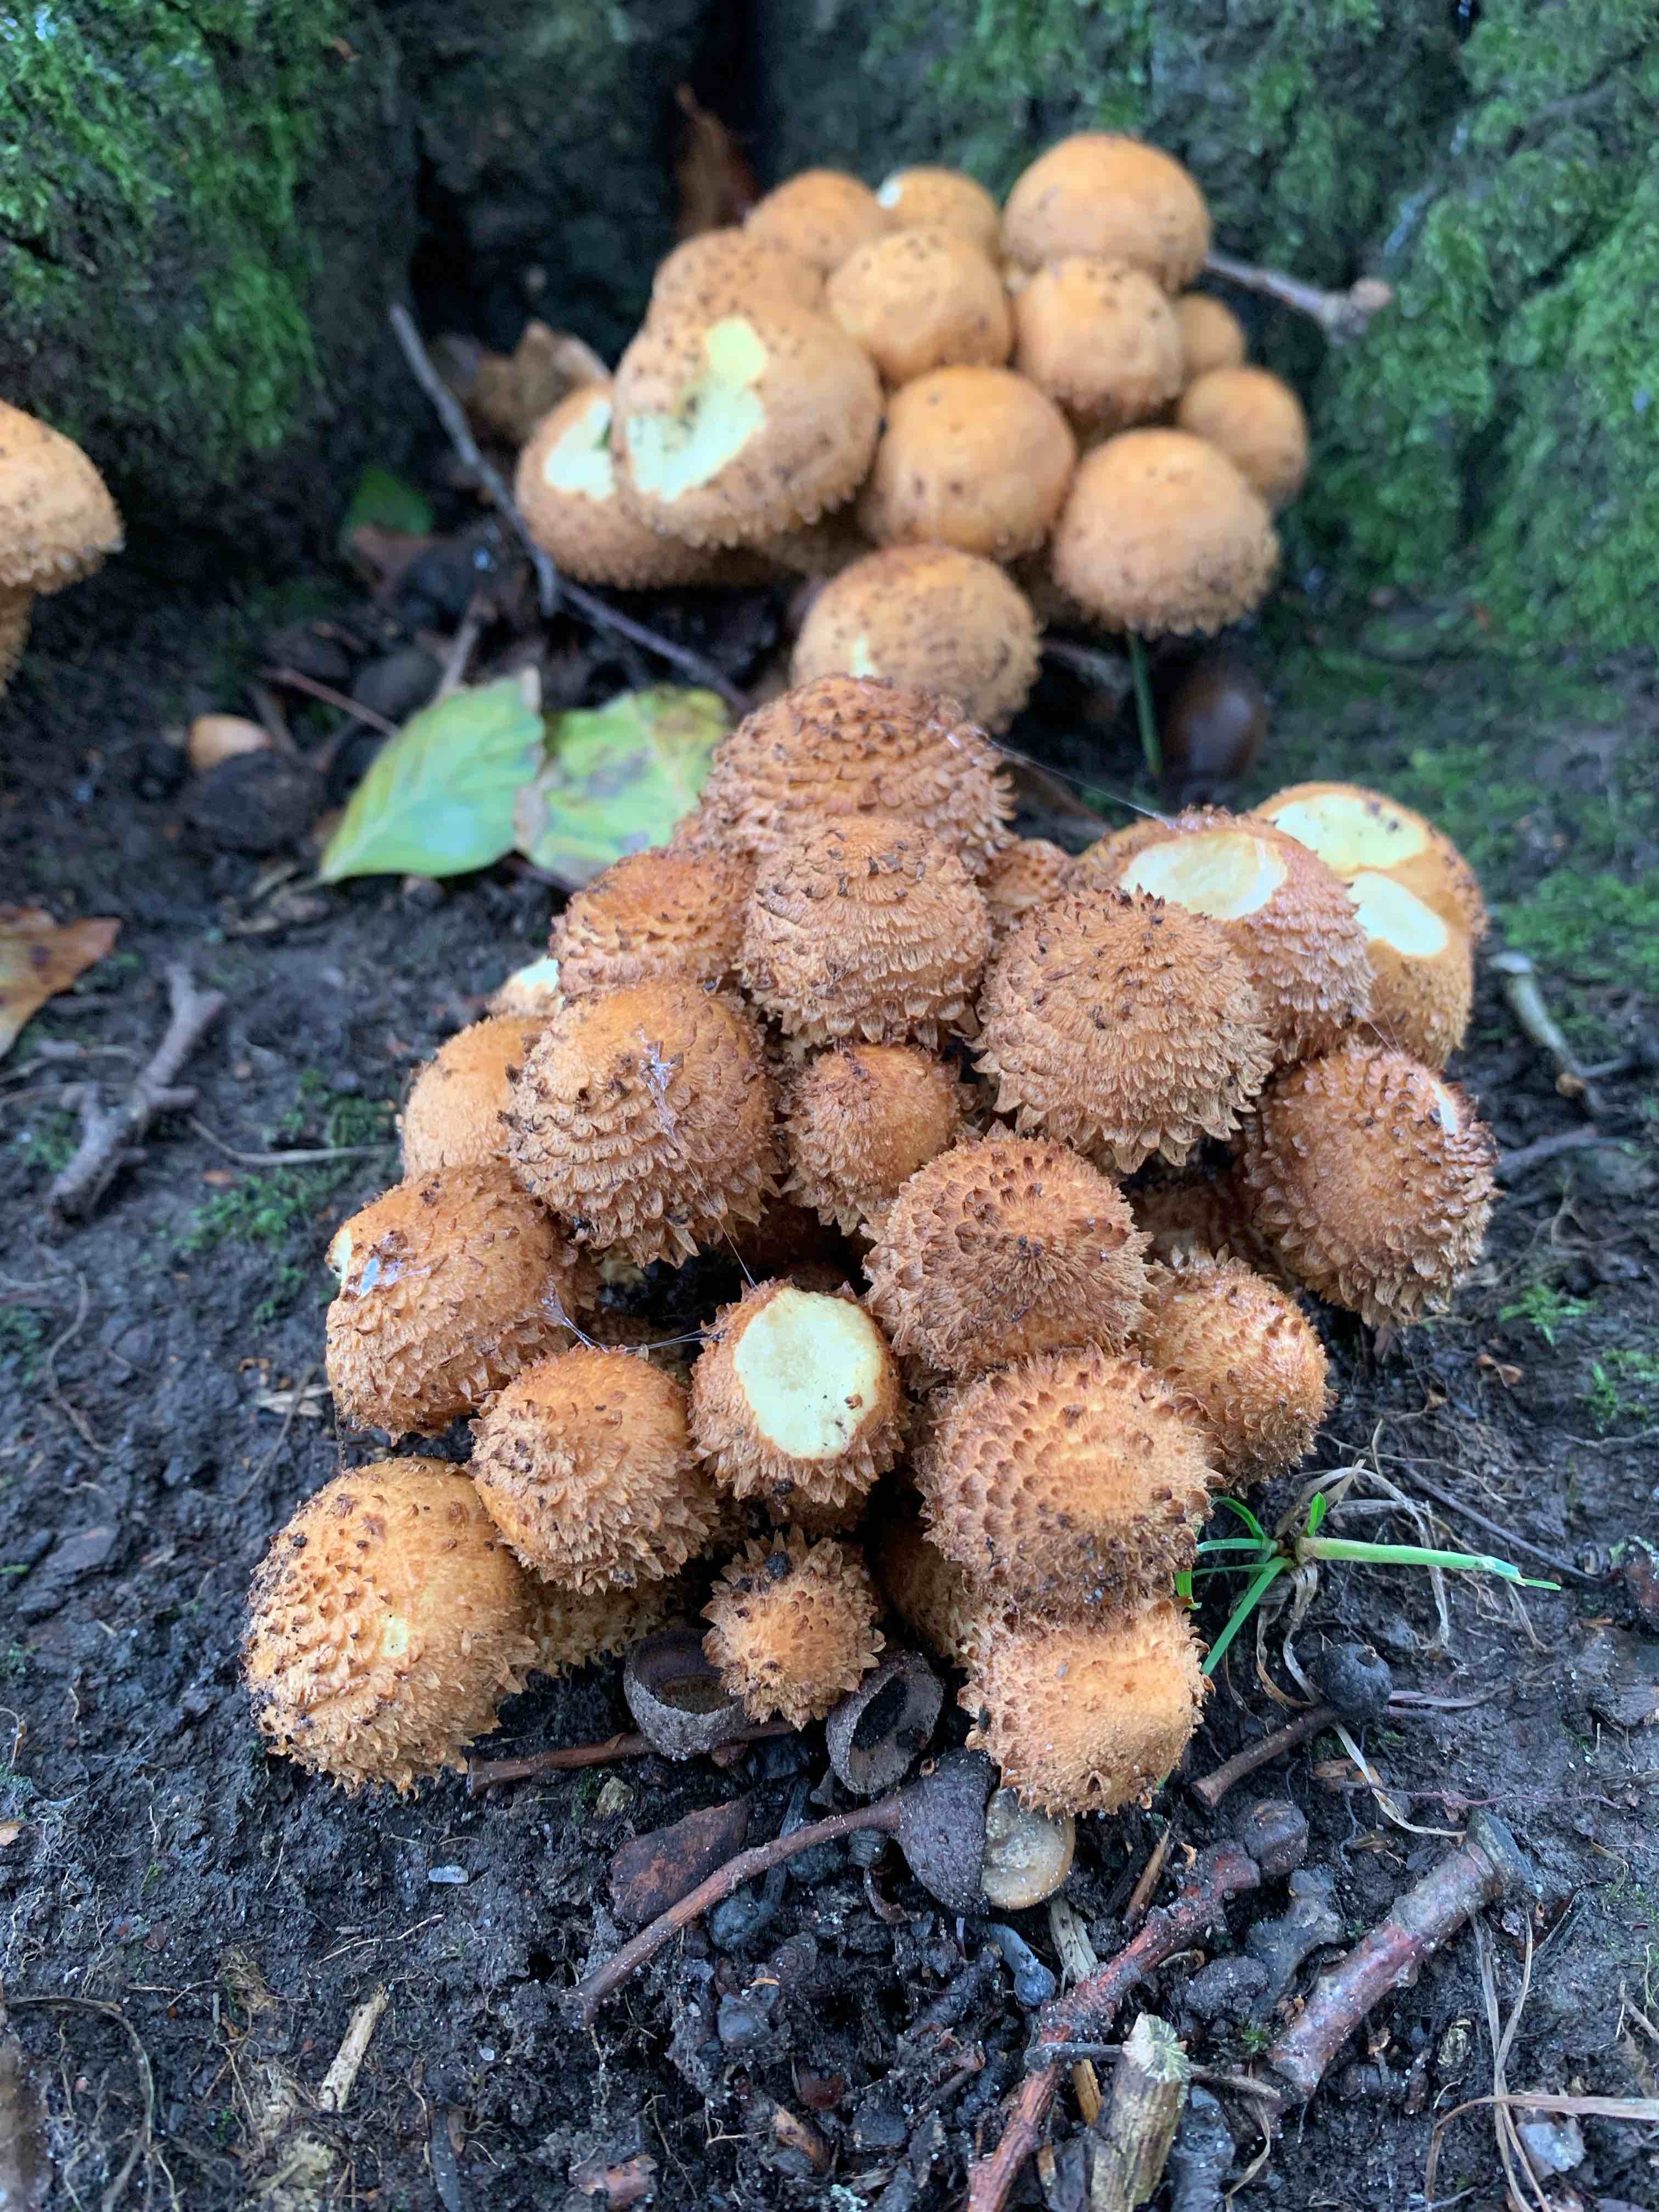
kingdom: Fungi
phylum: Basidiomycota
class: Agaricomycetes
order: Agaricales
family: Strophariaceae
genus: Pholiota
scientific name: Pholiota squarrosa
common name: krumskællet skælhat
